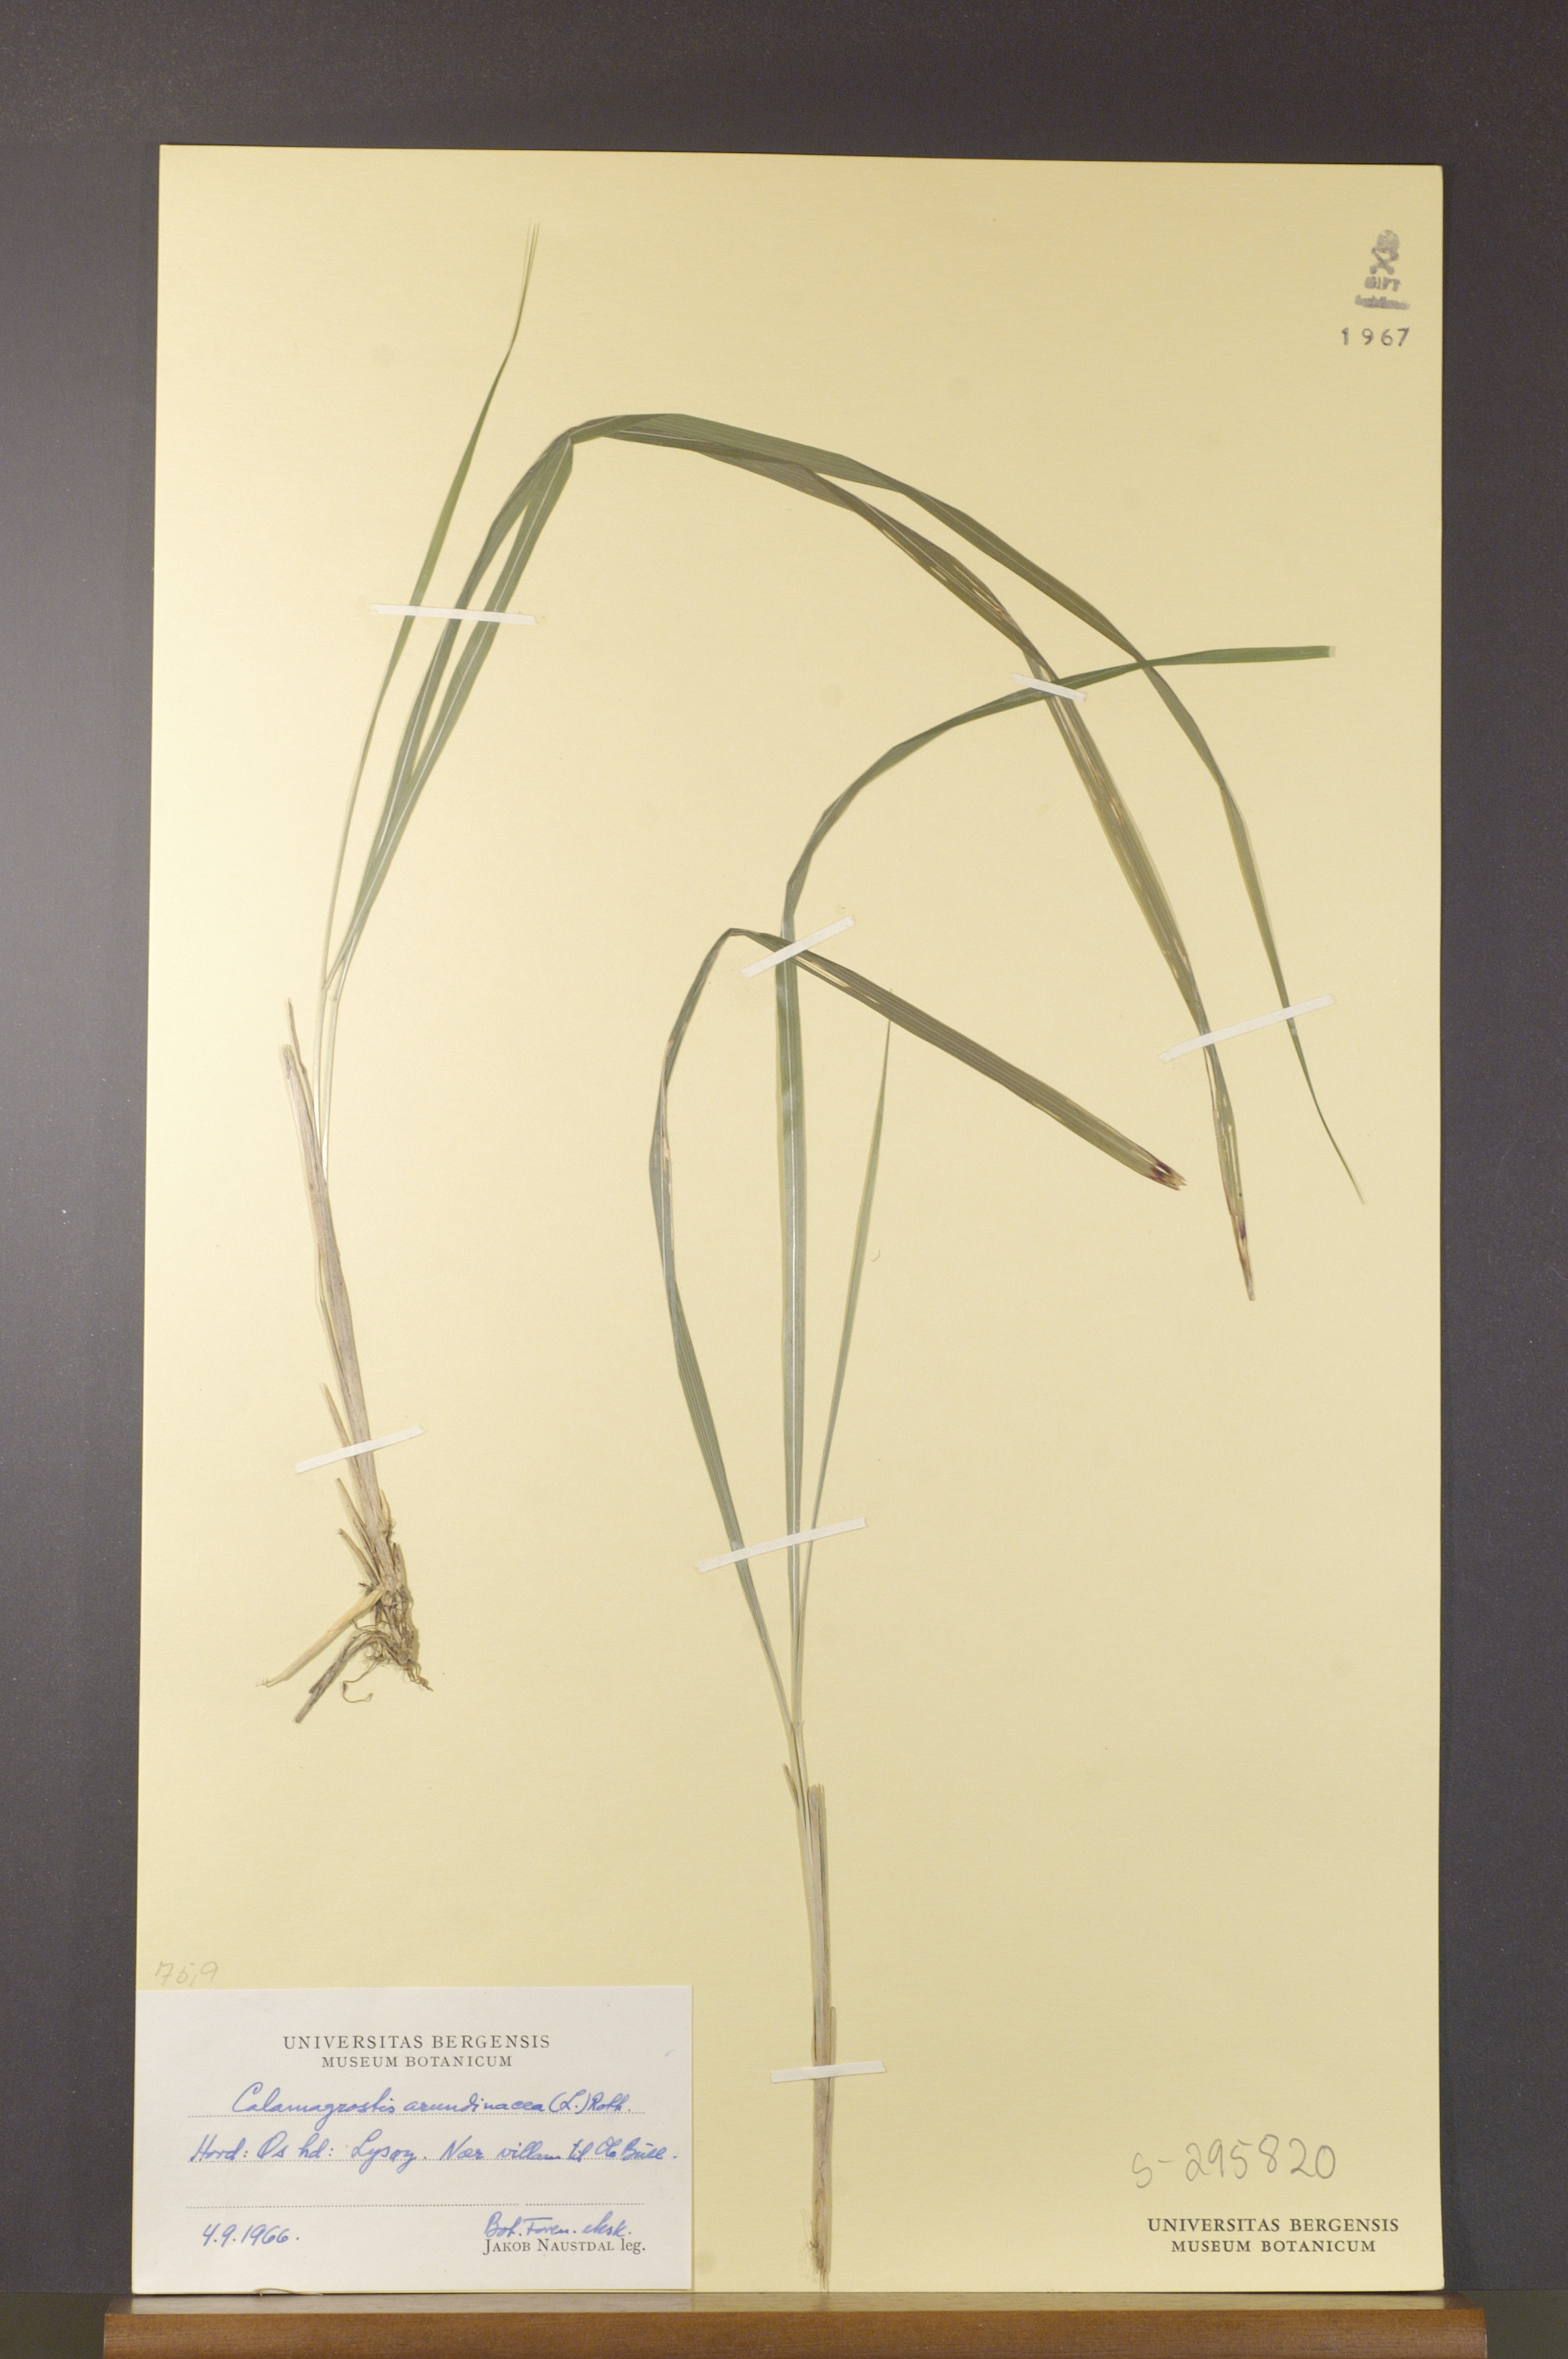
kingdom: Plantae
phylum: Tracheophyta
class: Liliopsida
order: Poales
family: Poaceae
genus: Calamagrostis
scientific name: Calamagrostis arundinacea
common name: Metskastik
